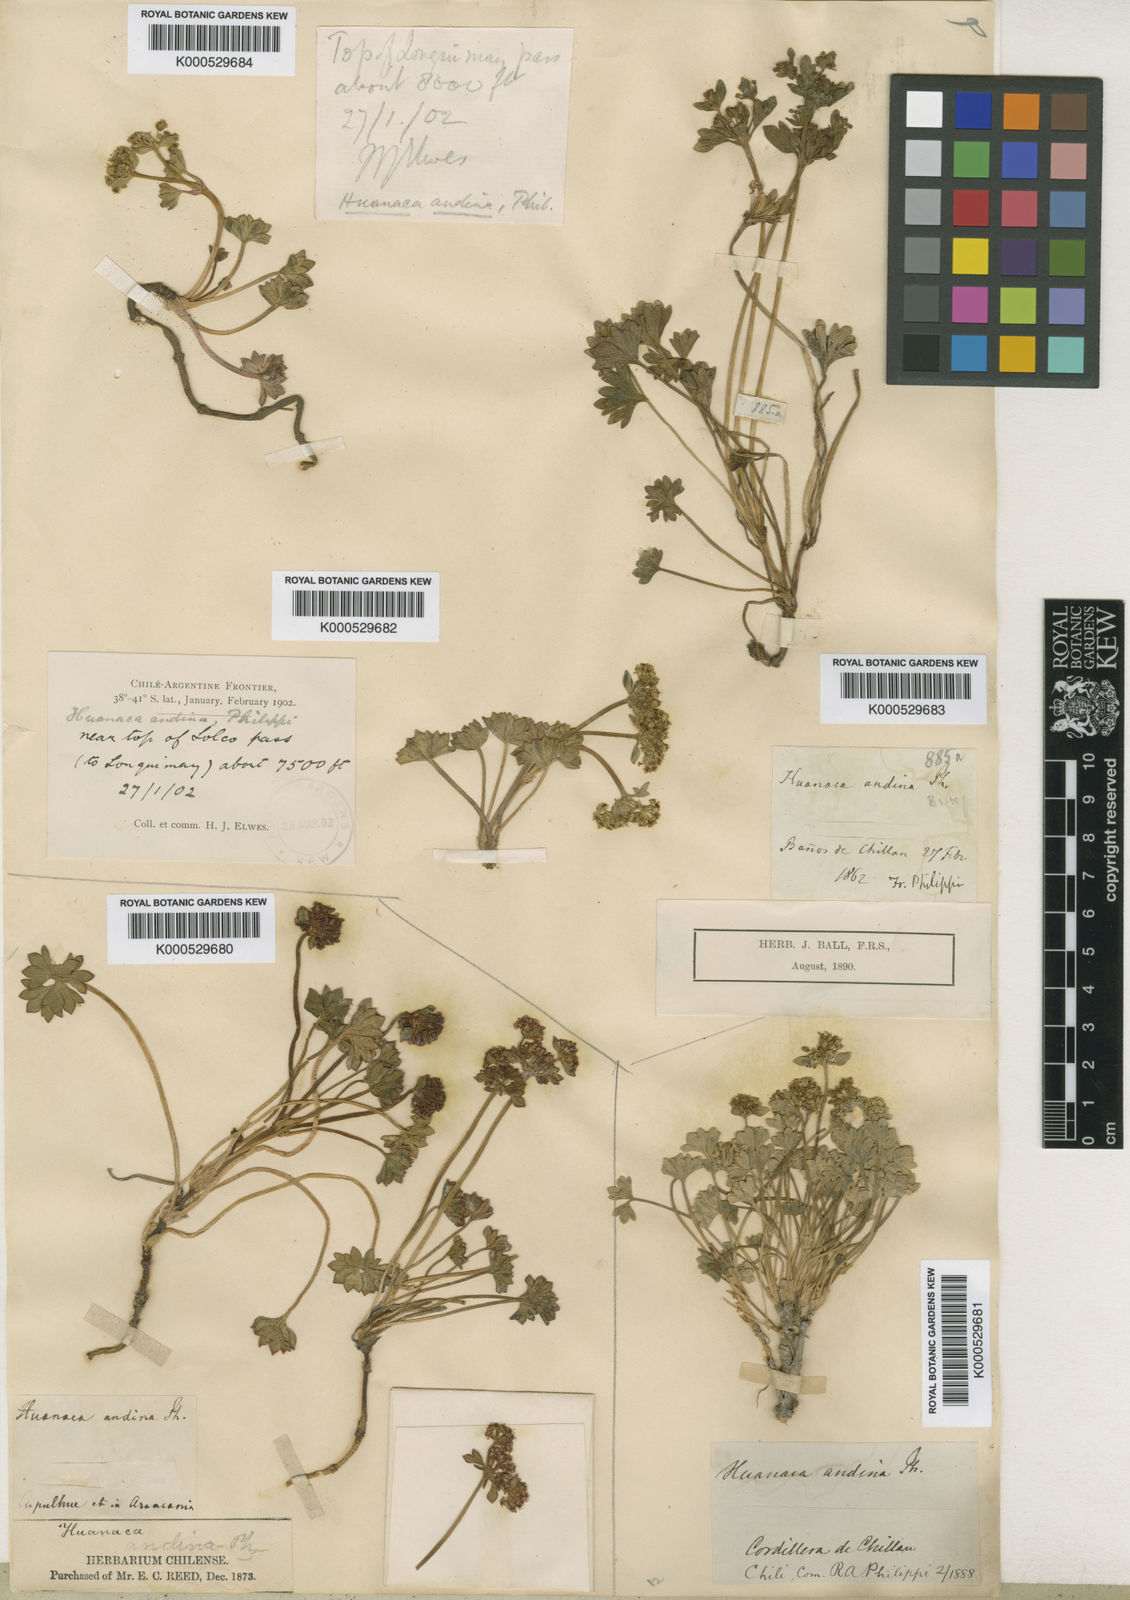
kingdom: Plantae
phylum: Tracheophyta
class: Magnoliopsida
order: Apiales
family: Apiaceae
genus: Azorella
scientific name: Azorella andina
